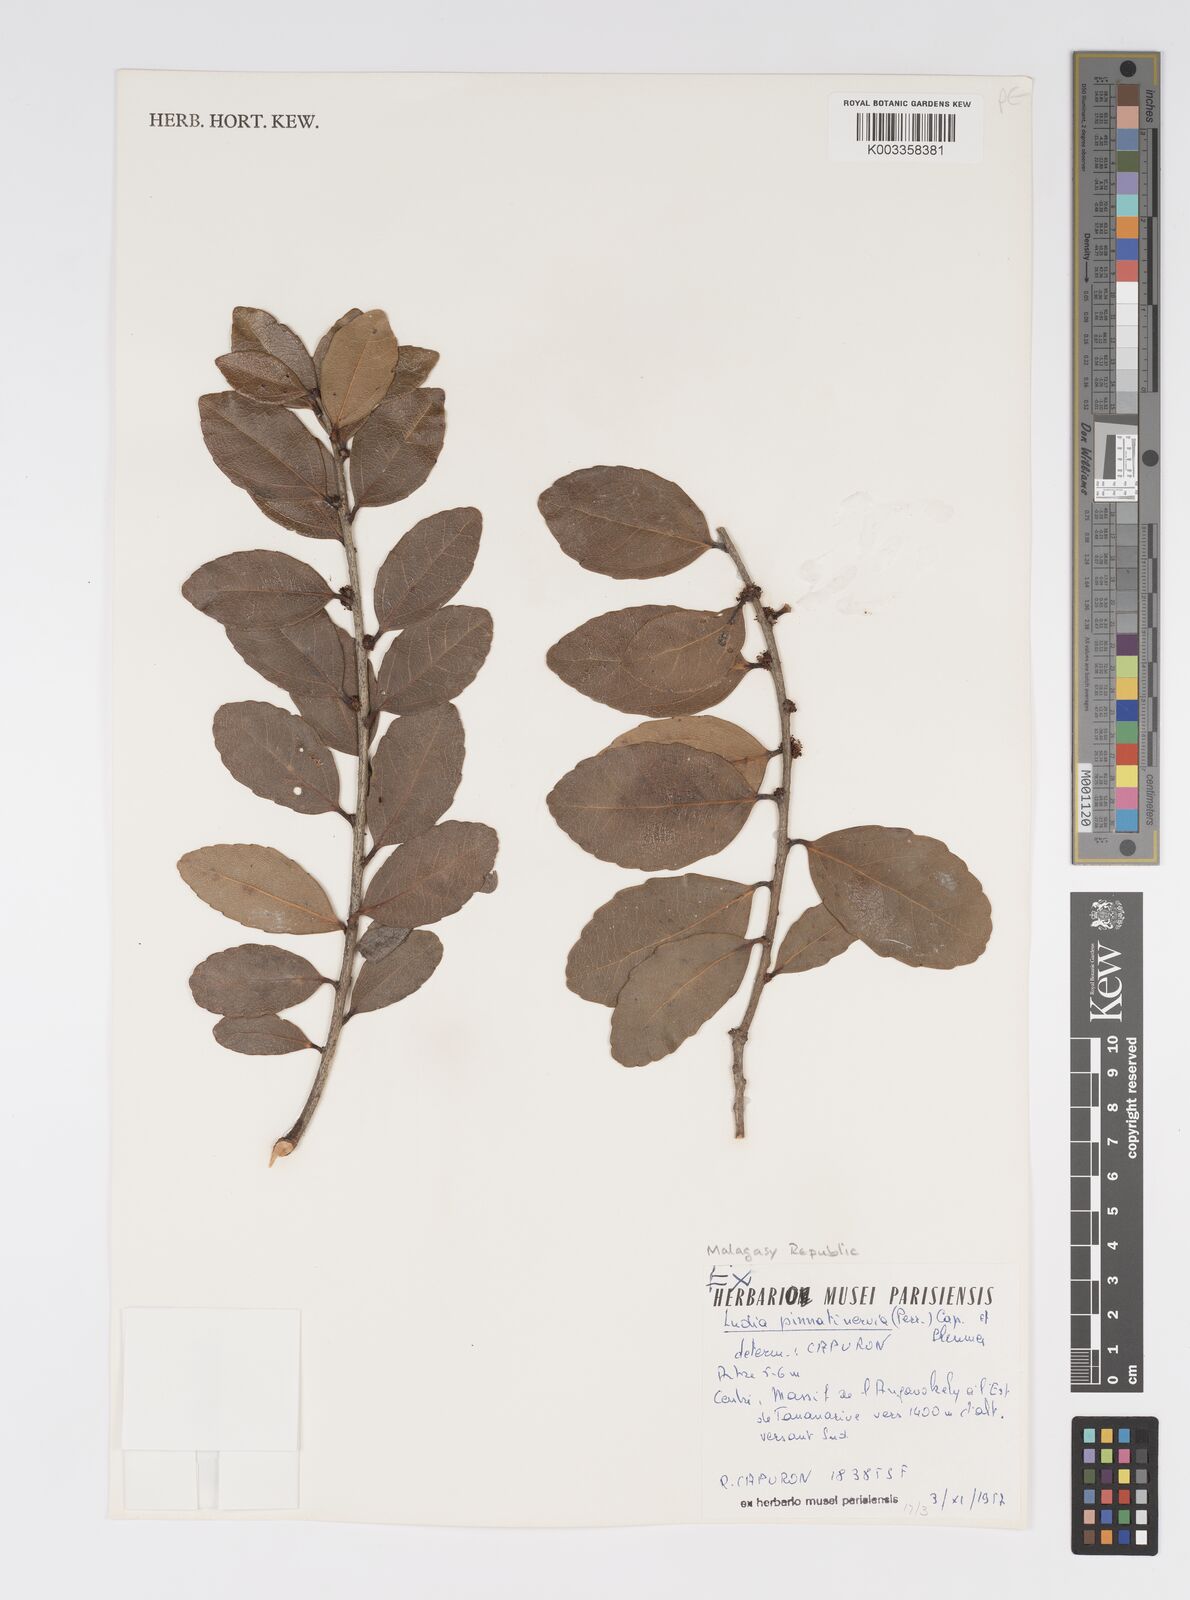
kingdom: Plantae
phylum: Tracheophyta
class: Magnoliopsida
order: Malpighiales
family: Salicaceae
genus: Ludia
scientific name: Ludia pinnatinervia
